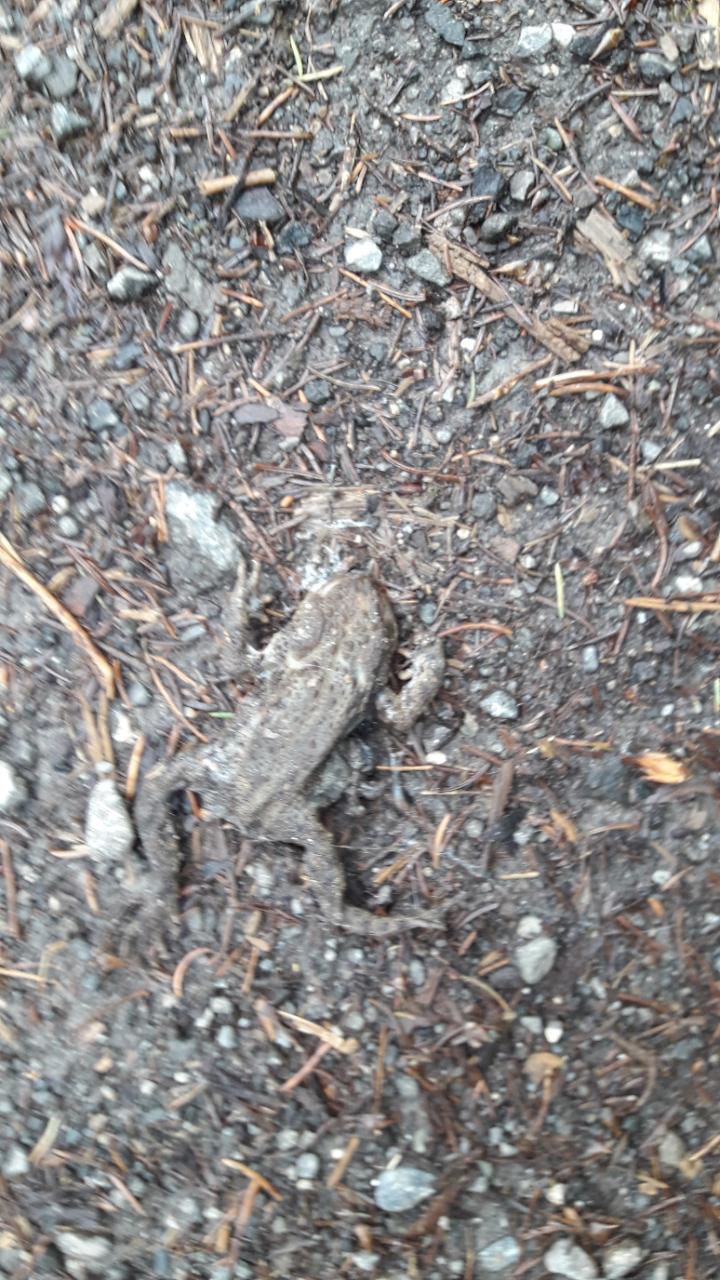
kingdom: Animalia
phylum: Chordata
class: Amphibia
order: Anura
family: Bufonidae
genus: Bufo
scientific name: Bufo bufo
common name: Common toad
